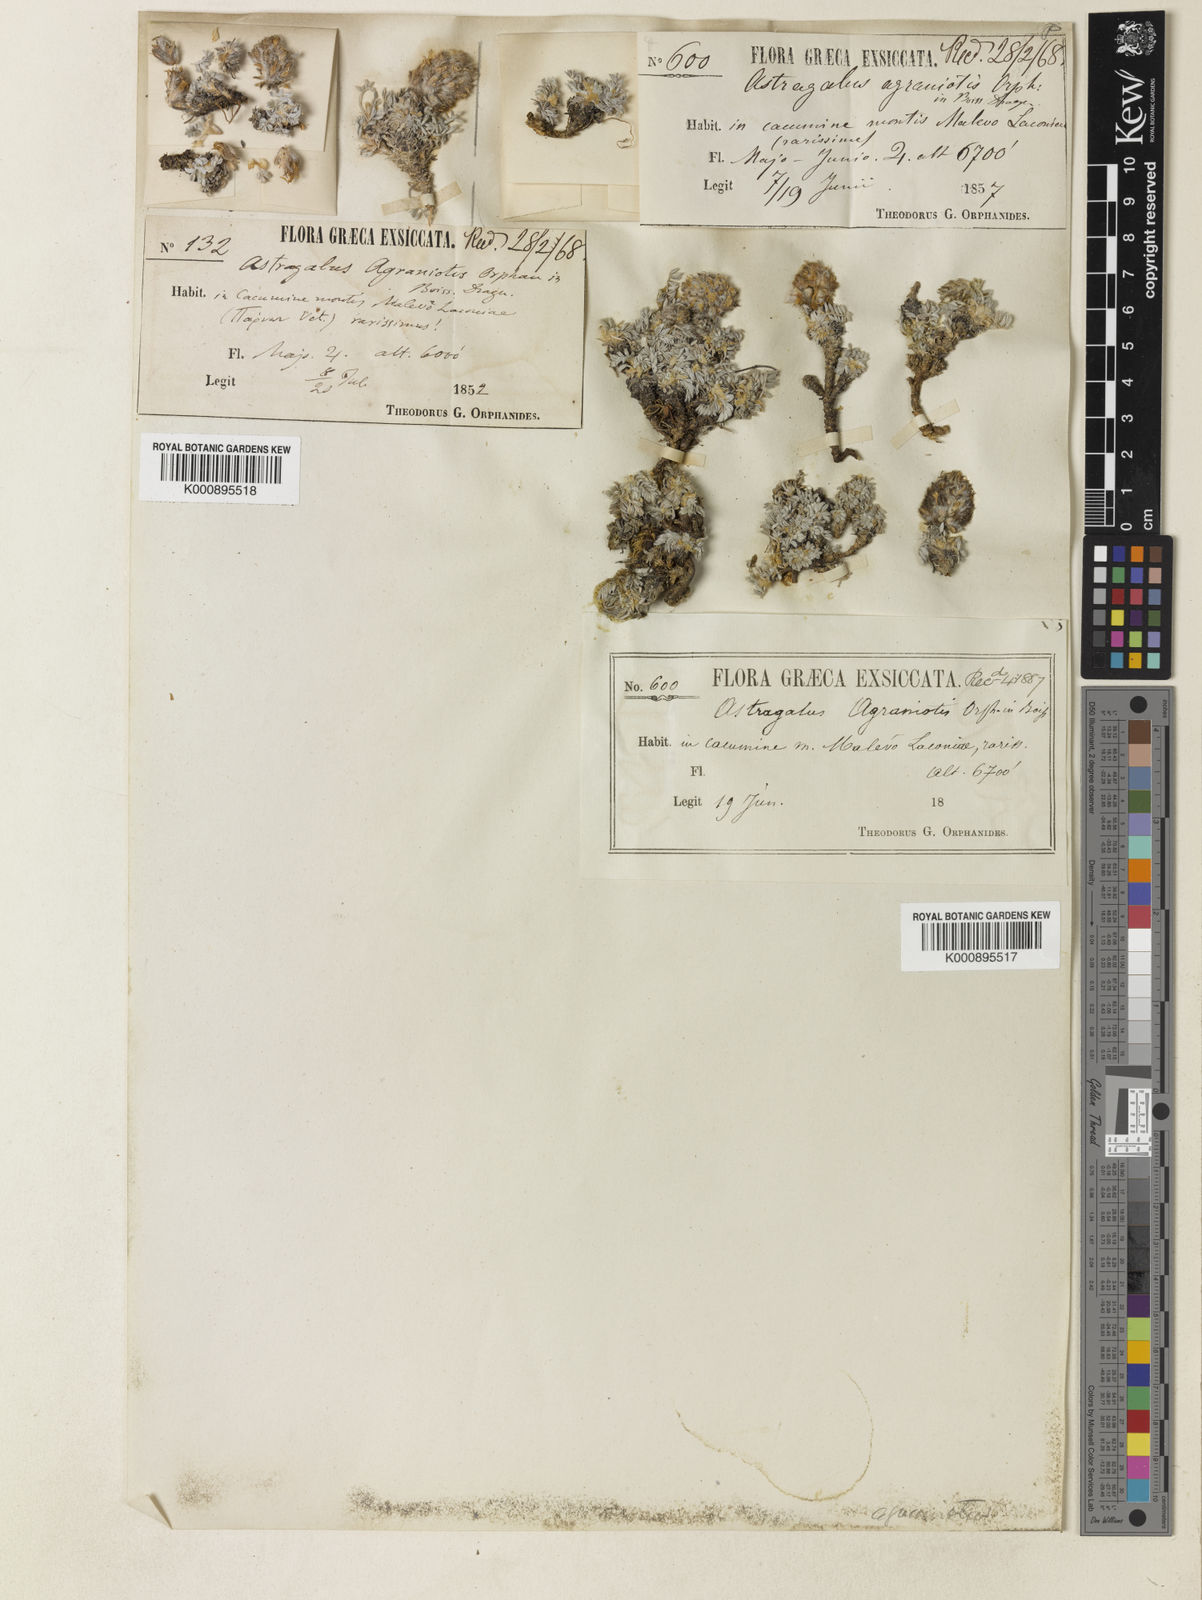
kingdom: Plantae
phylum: Tracheophyta
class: Magnoliopsida
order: Fabales
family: Fabaceae
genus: Astragalus
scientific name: Astragalus
